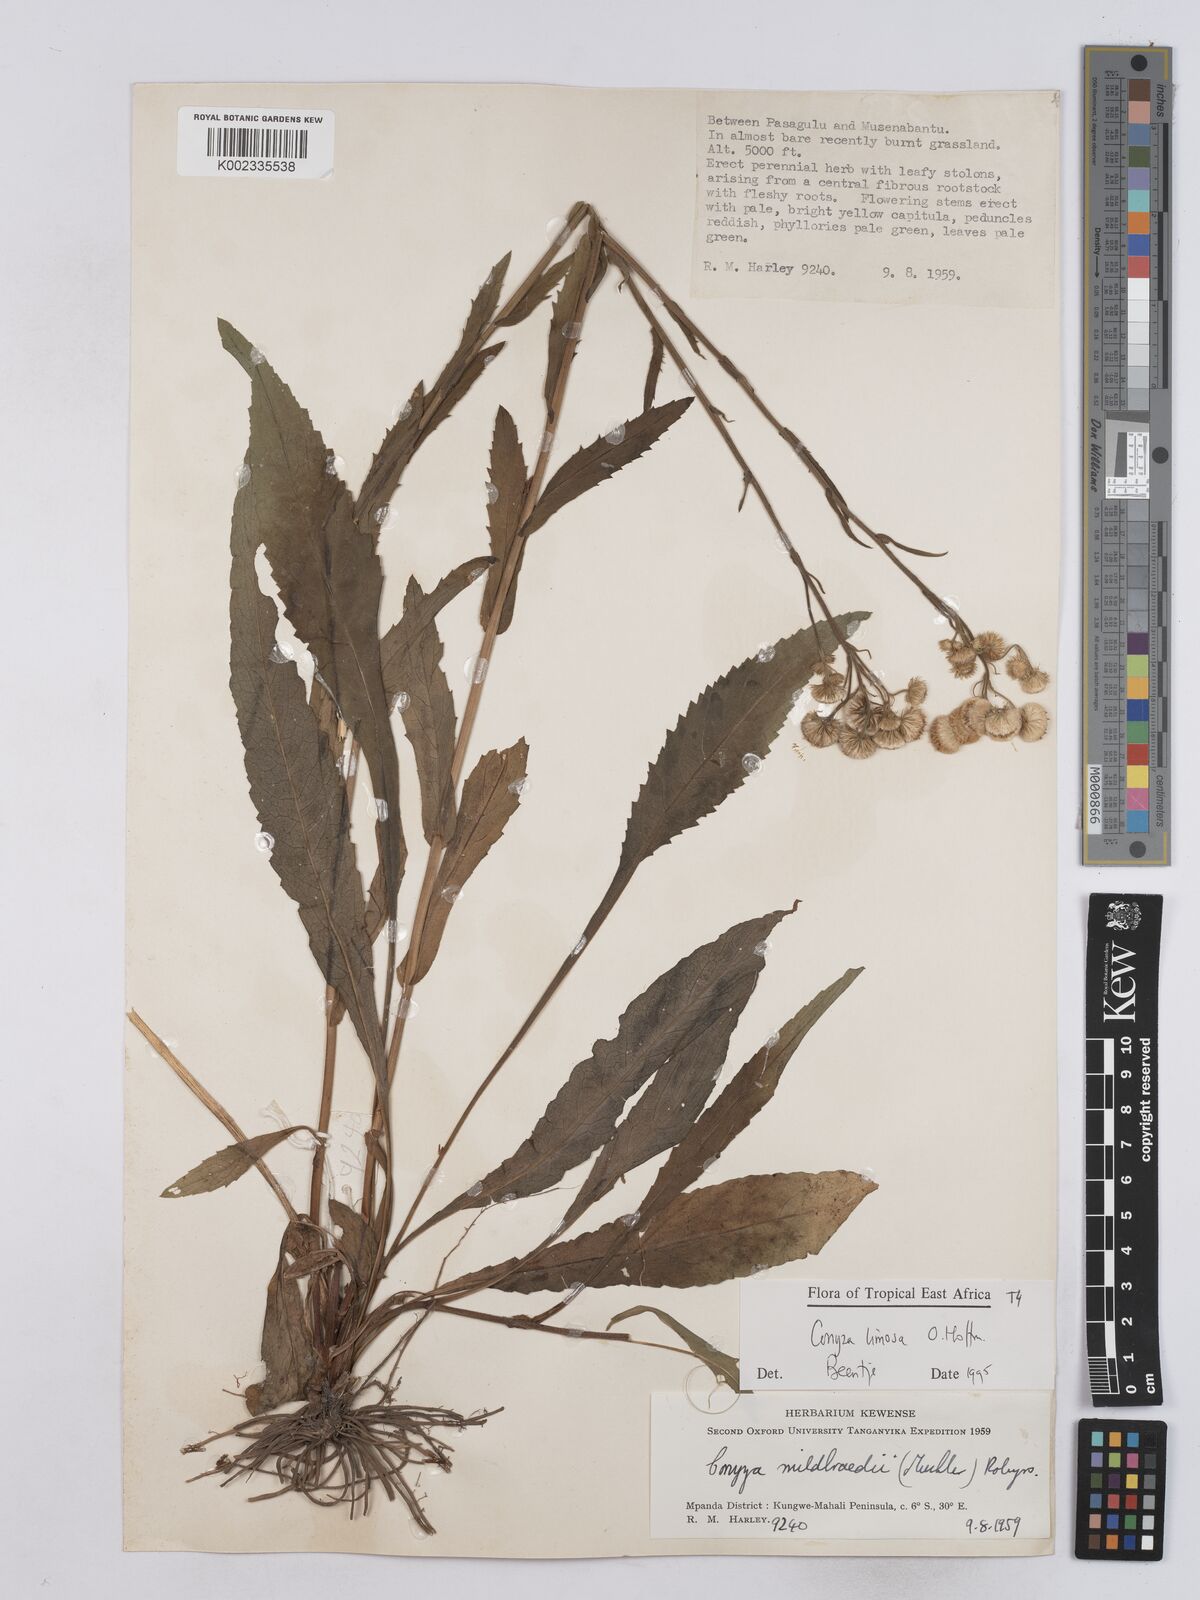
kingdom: Plantae
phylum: Tracheophyta
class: Magnoliopsida
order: Asterales
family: Asteraceae
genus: Conyza
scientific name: Conyza limosa
